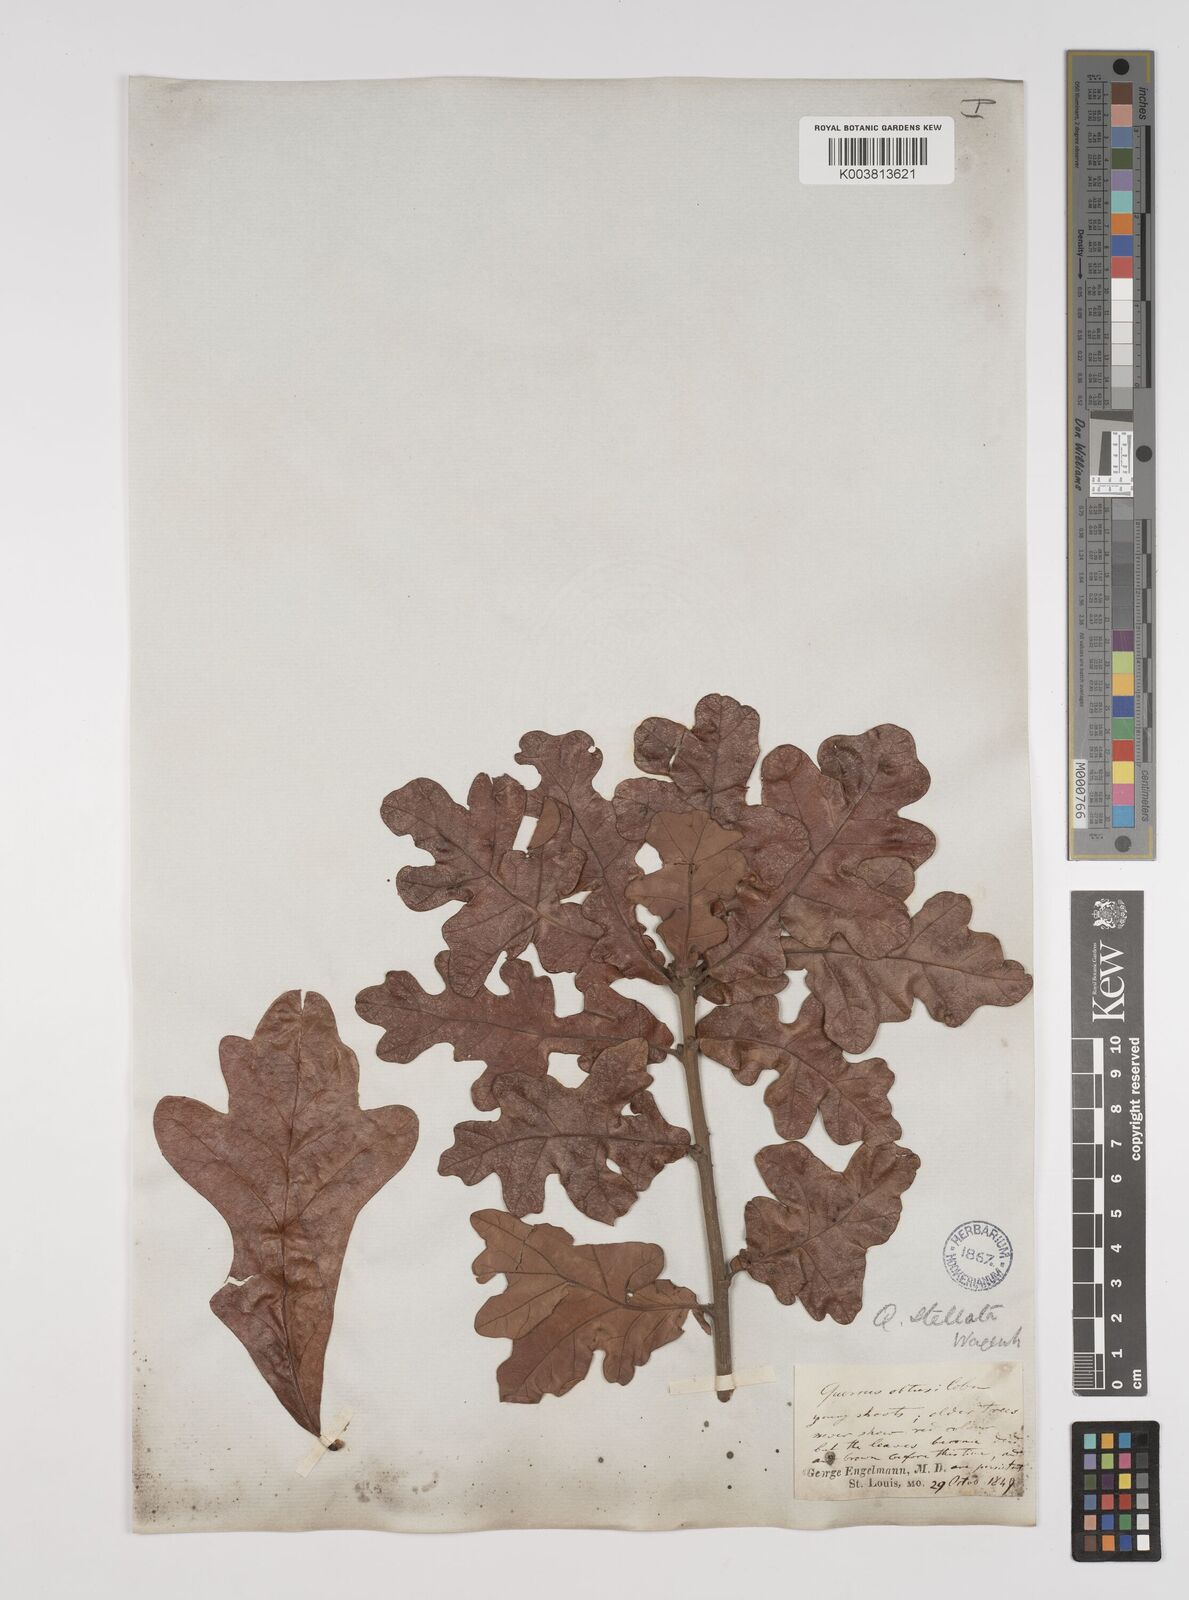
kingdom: Plantae
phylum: Tracheophyta
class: Magnoliopsida
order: Fagales
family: Fagaceae
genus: Quercus
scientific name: Quercus stellata
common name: Post oak
